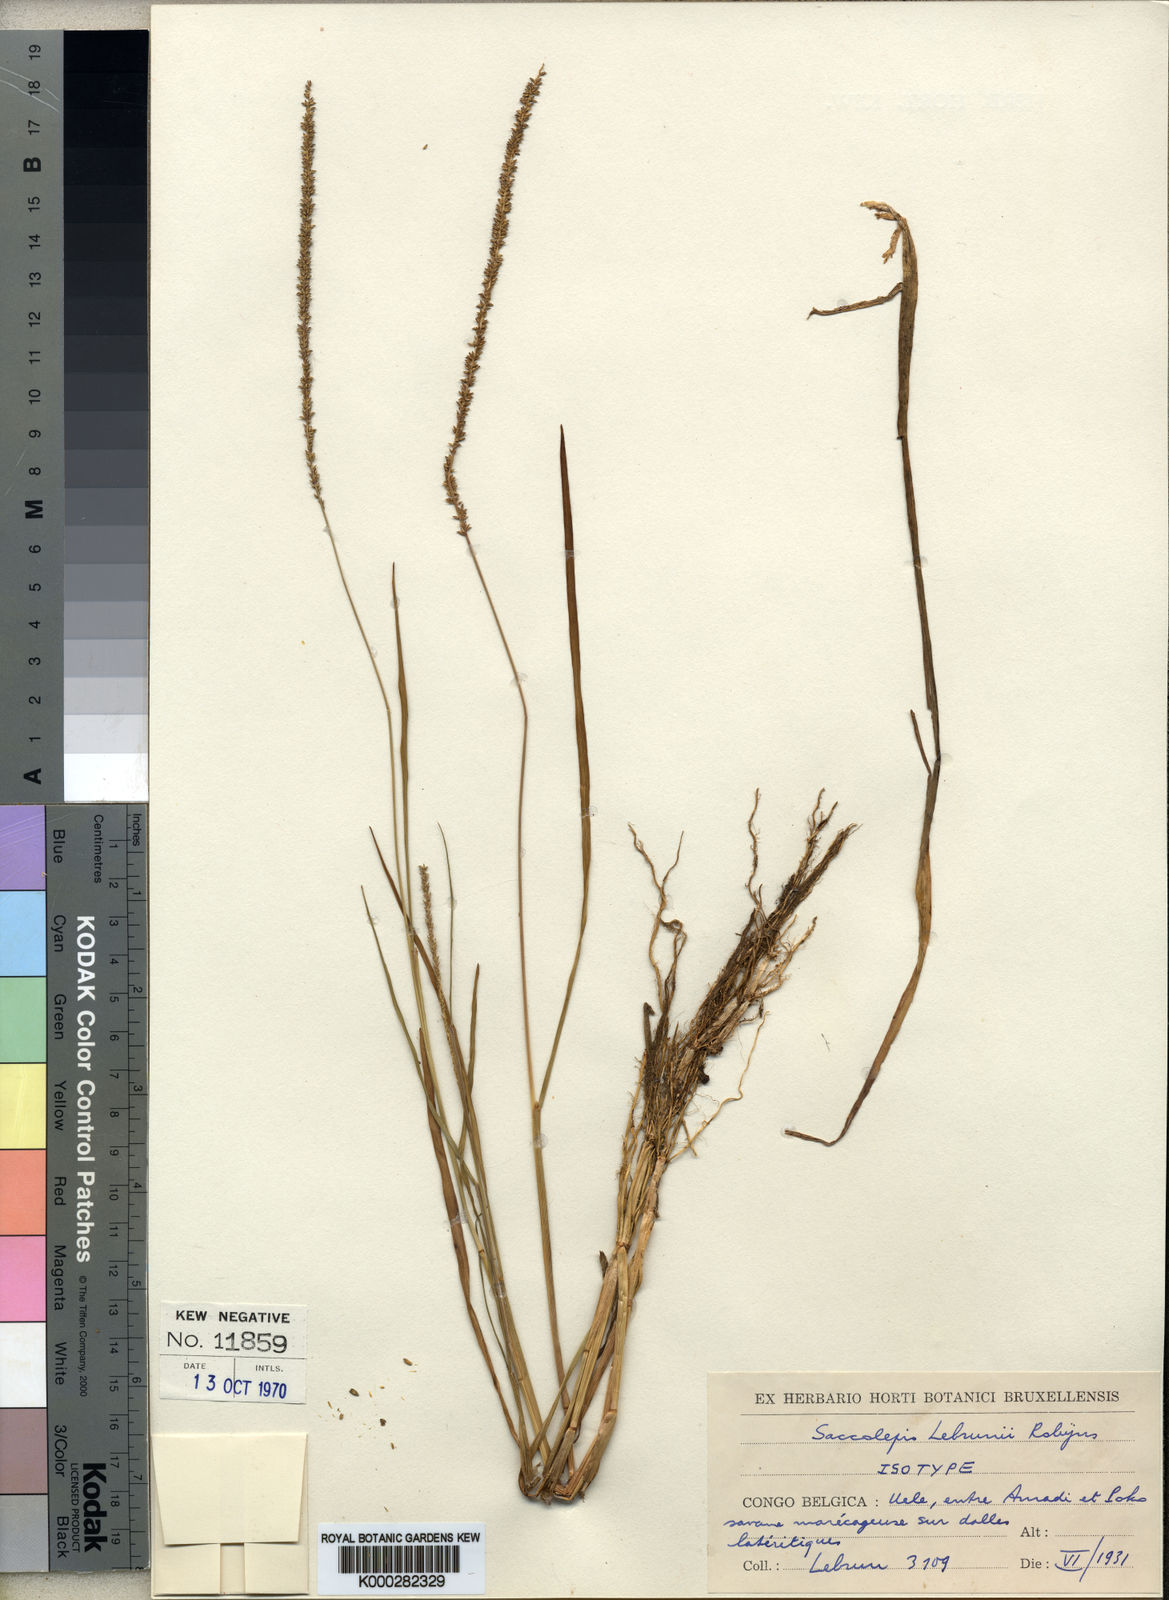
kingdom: Plantae
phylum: Tracheophyta
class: Liliopsida
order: Poales
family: Poaceae
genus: Sacciolepis
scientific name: Sacciolepis myosuroides
